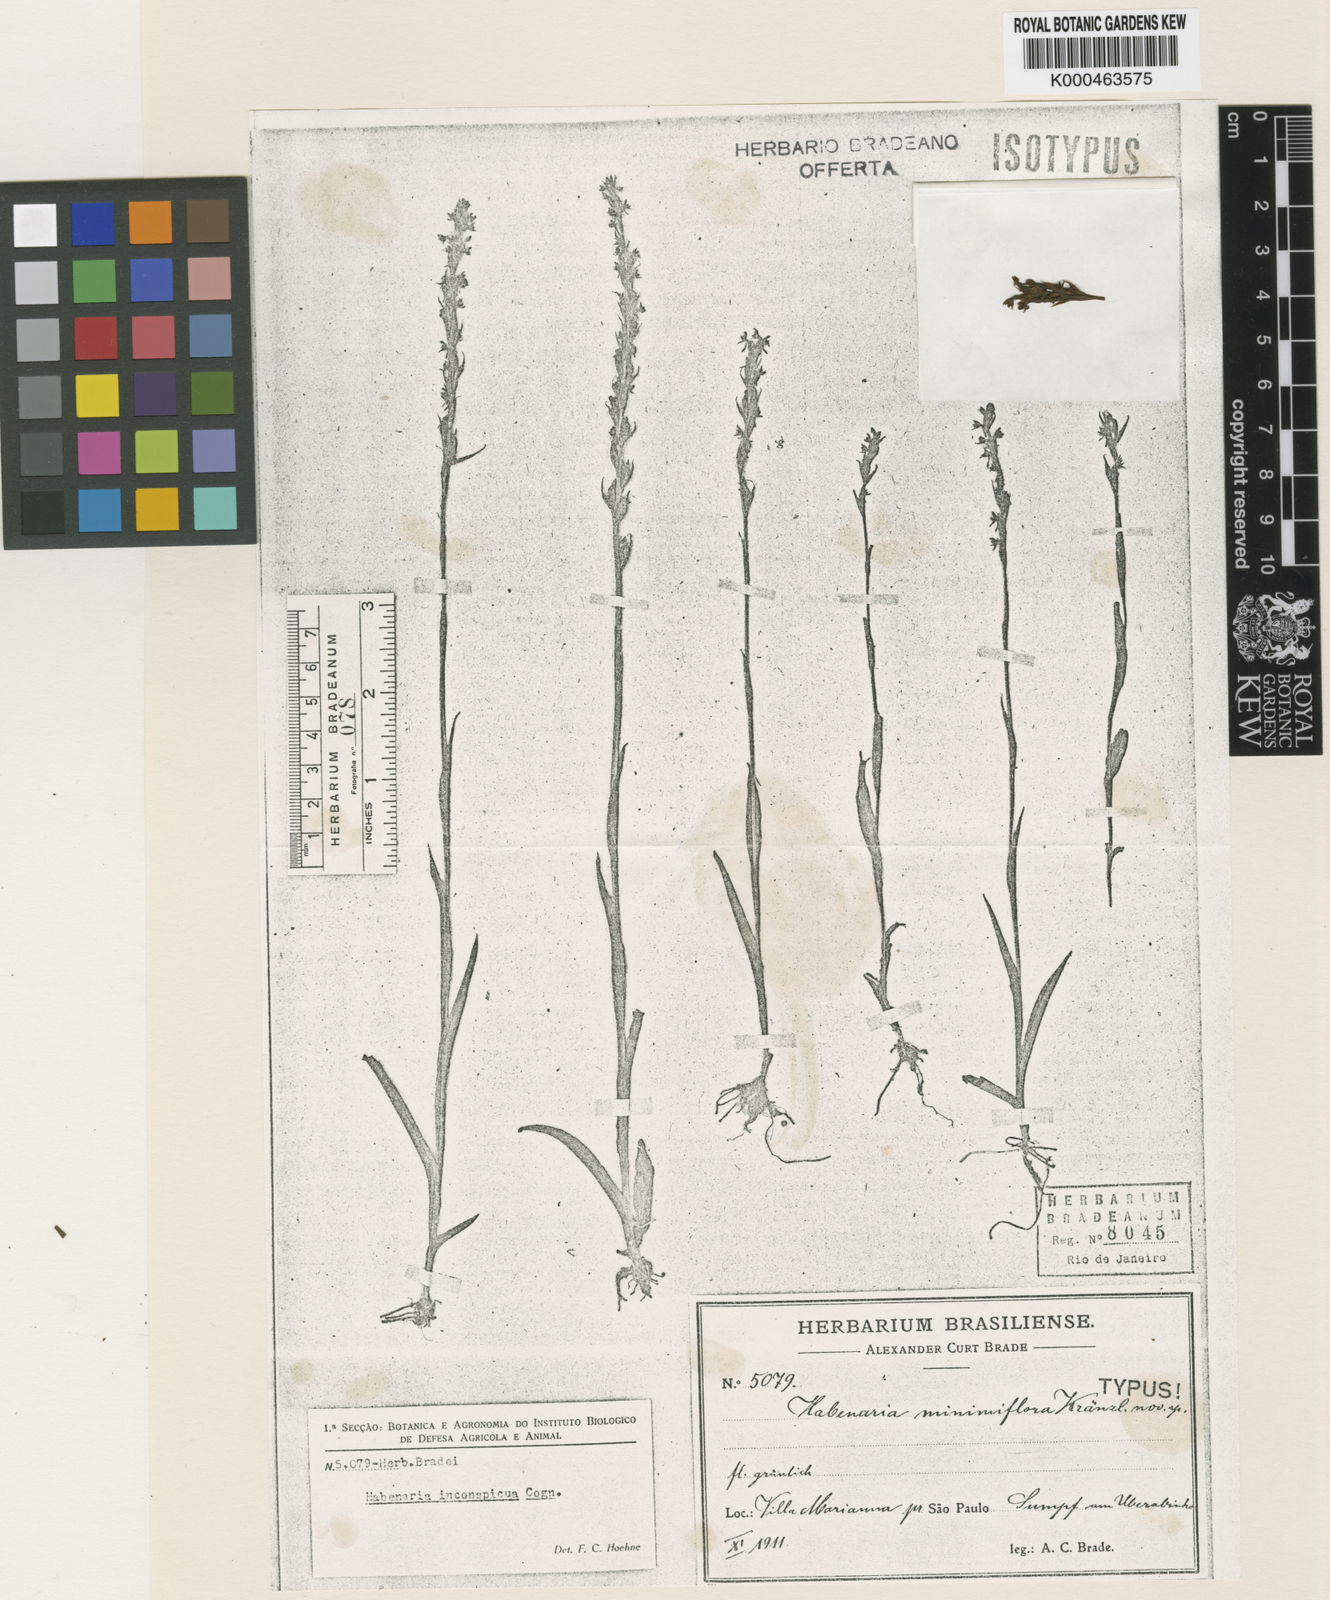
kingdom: Plantae
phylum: Tracheophyta
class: Liliopsida
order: Asparagales
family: Orchidaceae
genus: Habenaria
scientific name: Habenaria paulensis
